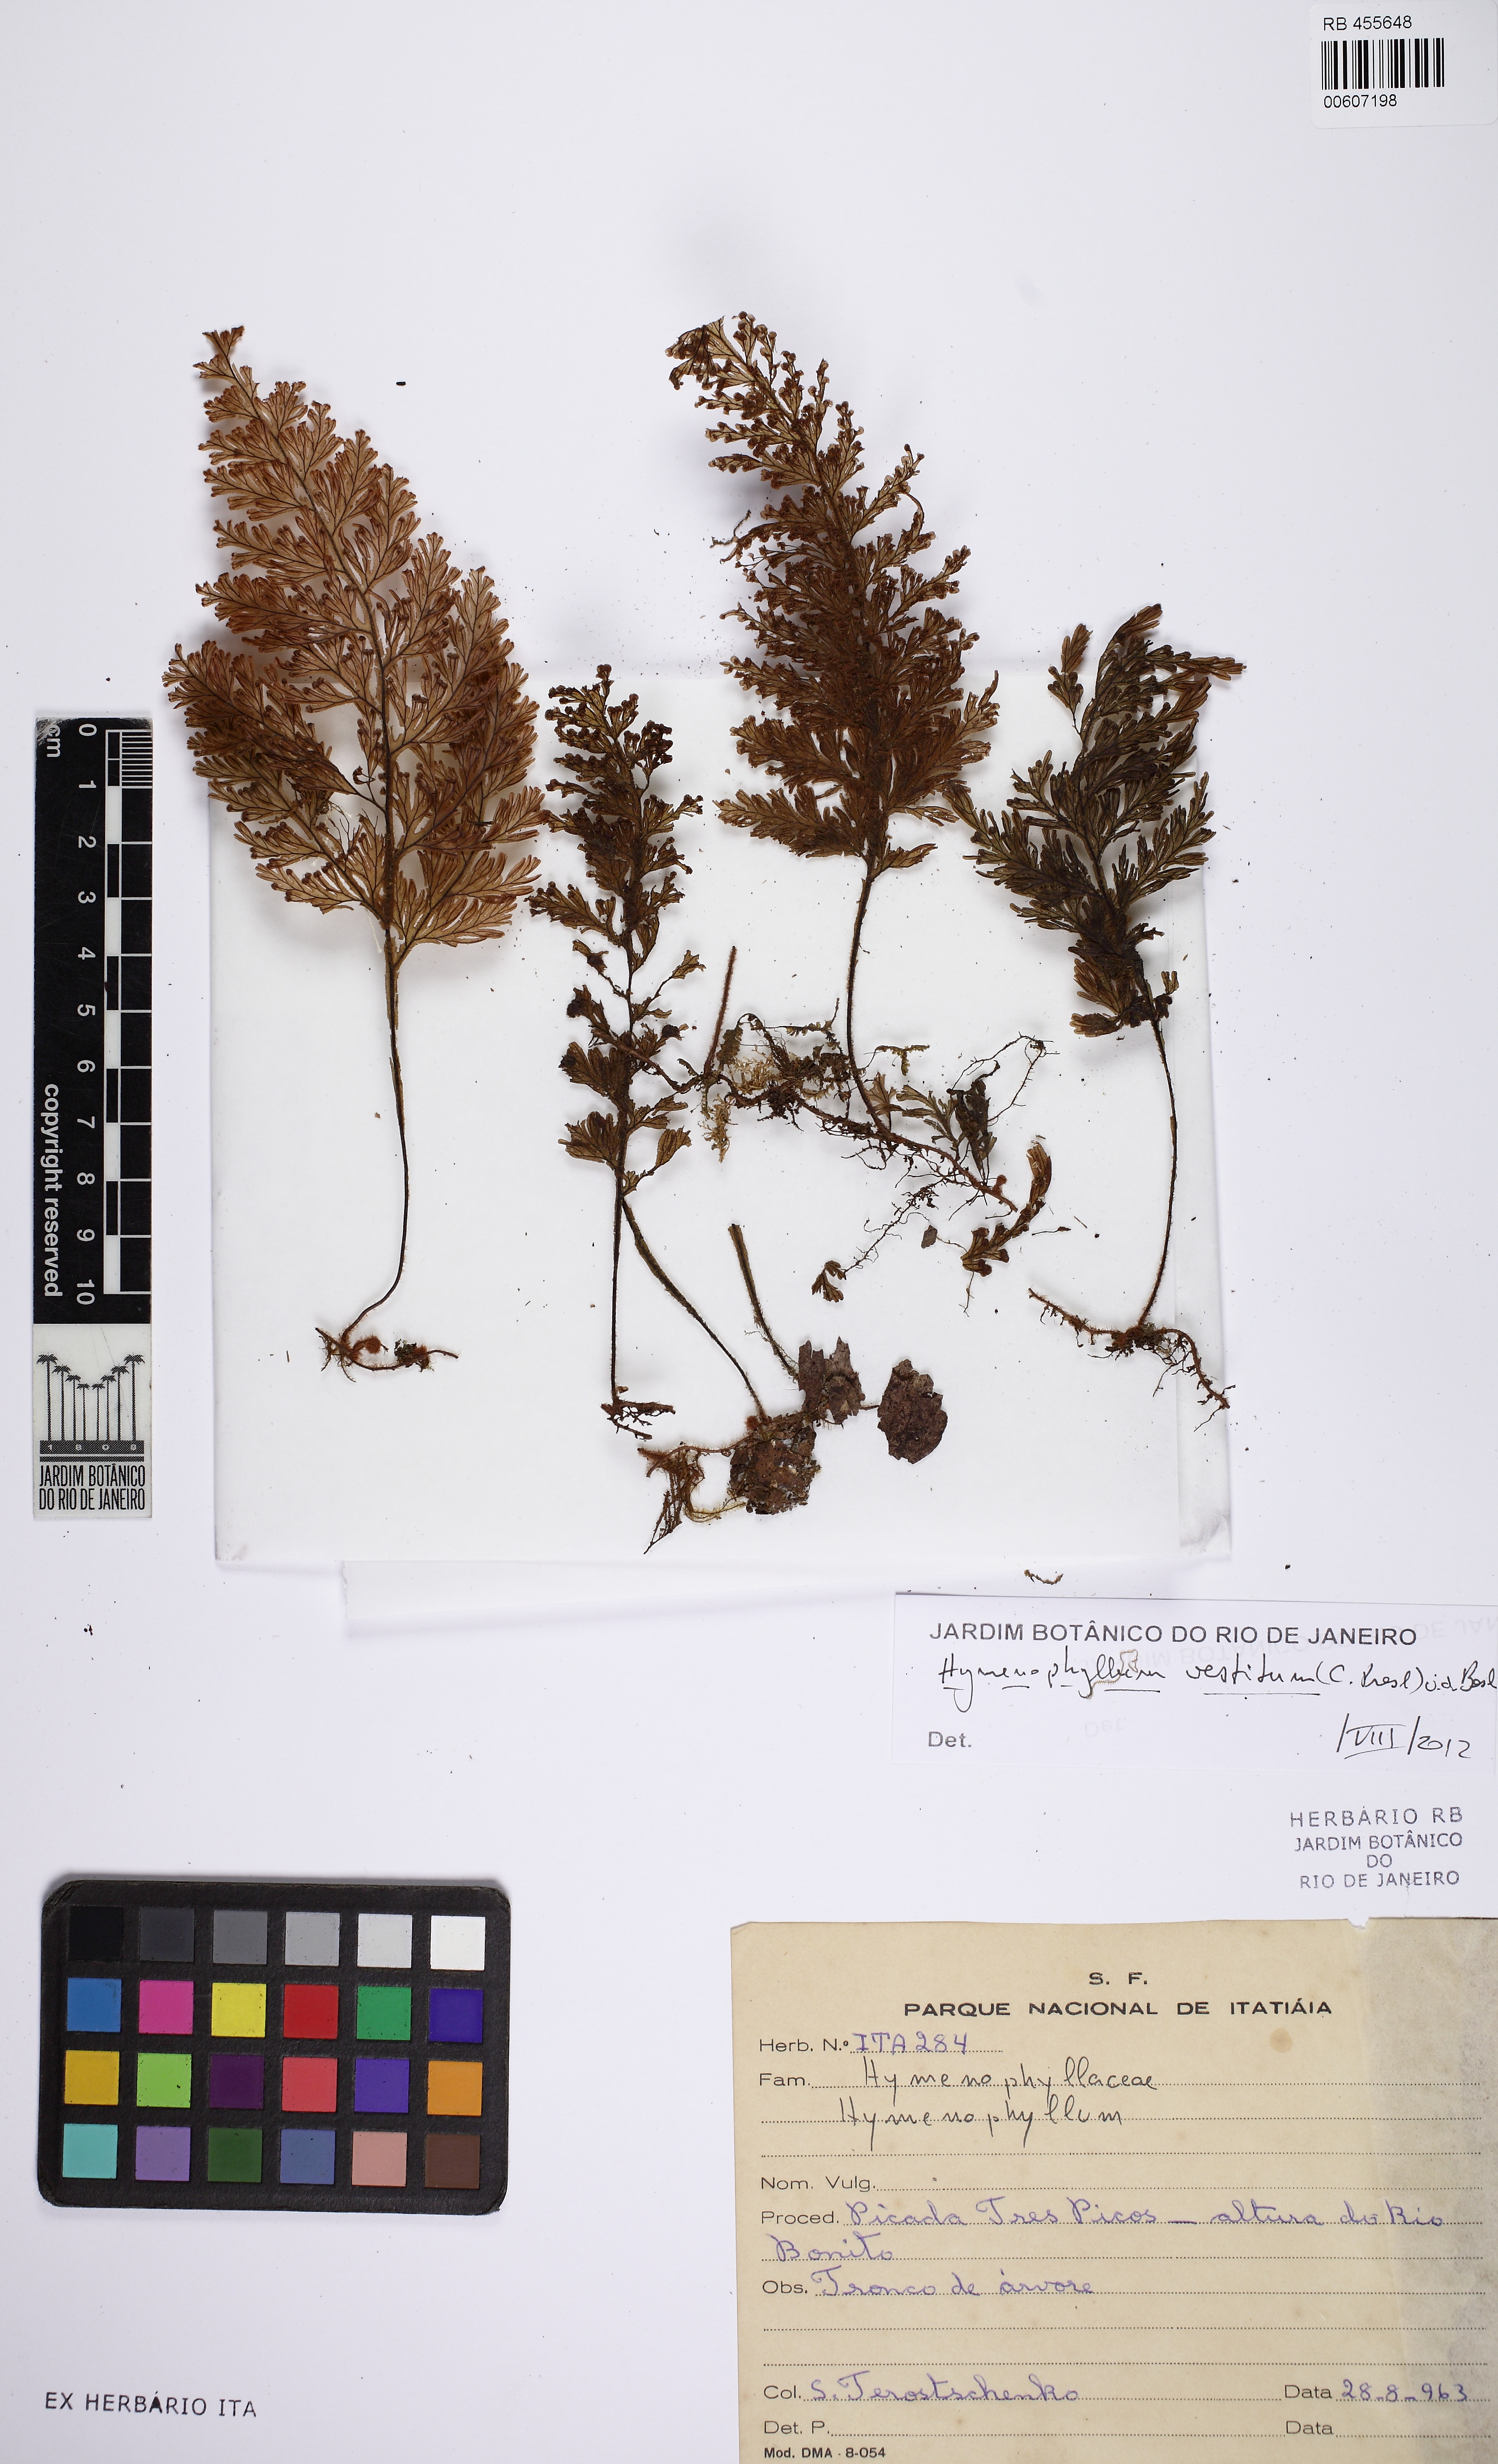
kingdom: Plantae
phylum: Tracheophyta
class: Polypodiopsida
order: Hymenophyllales
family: Hymenophyllaceae
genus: Hymenophyllum
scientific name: Hymenophyllum vestitum
